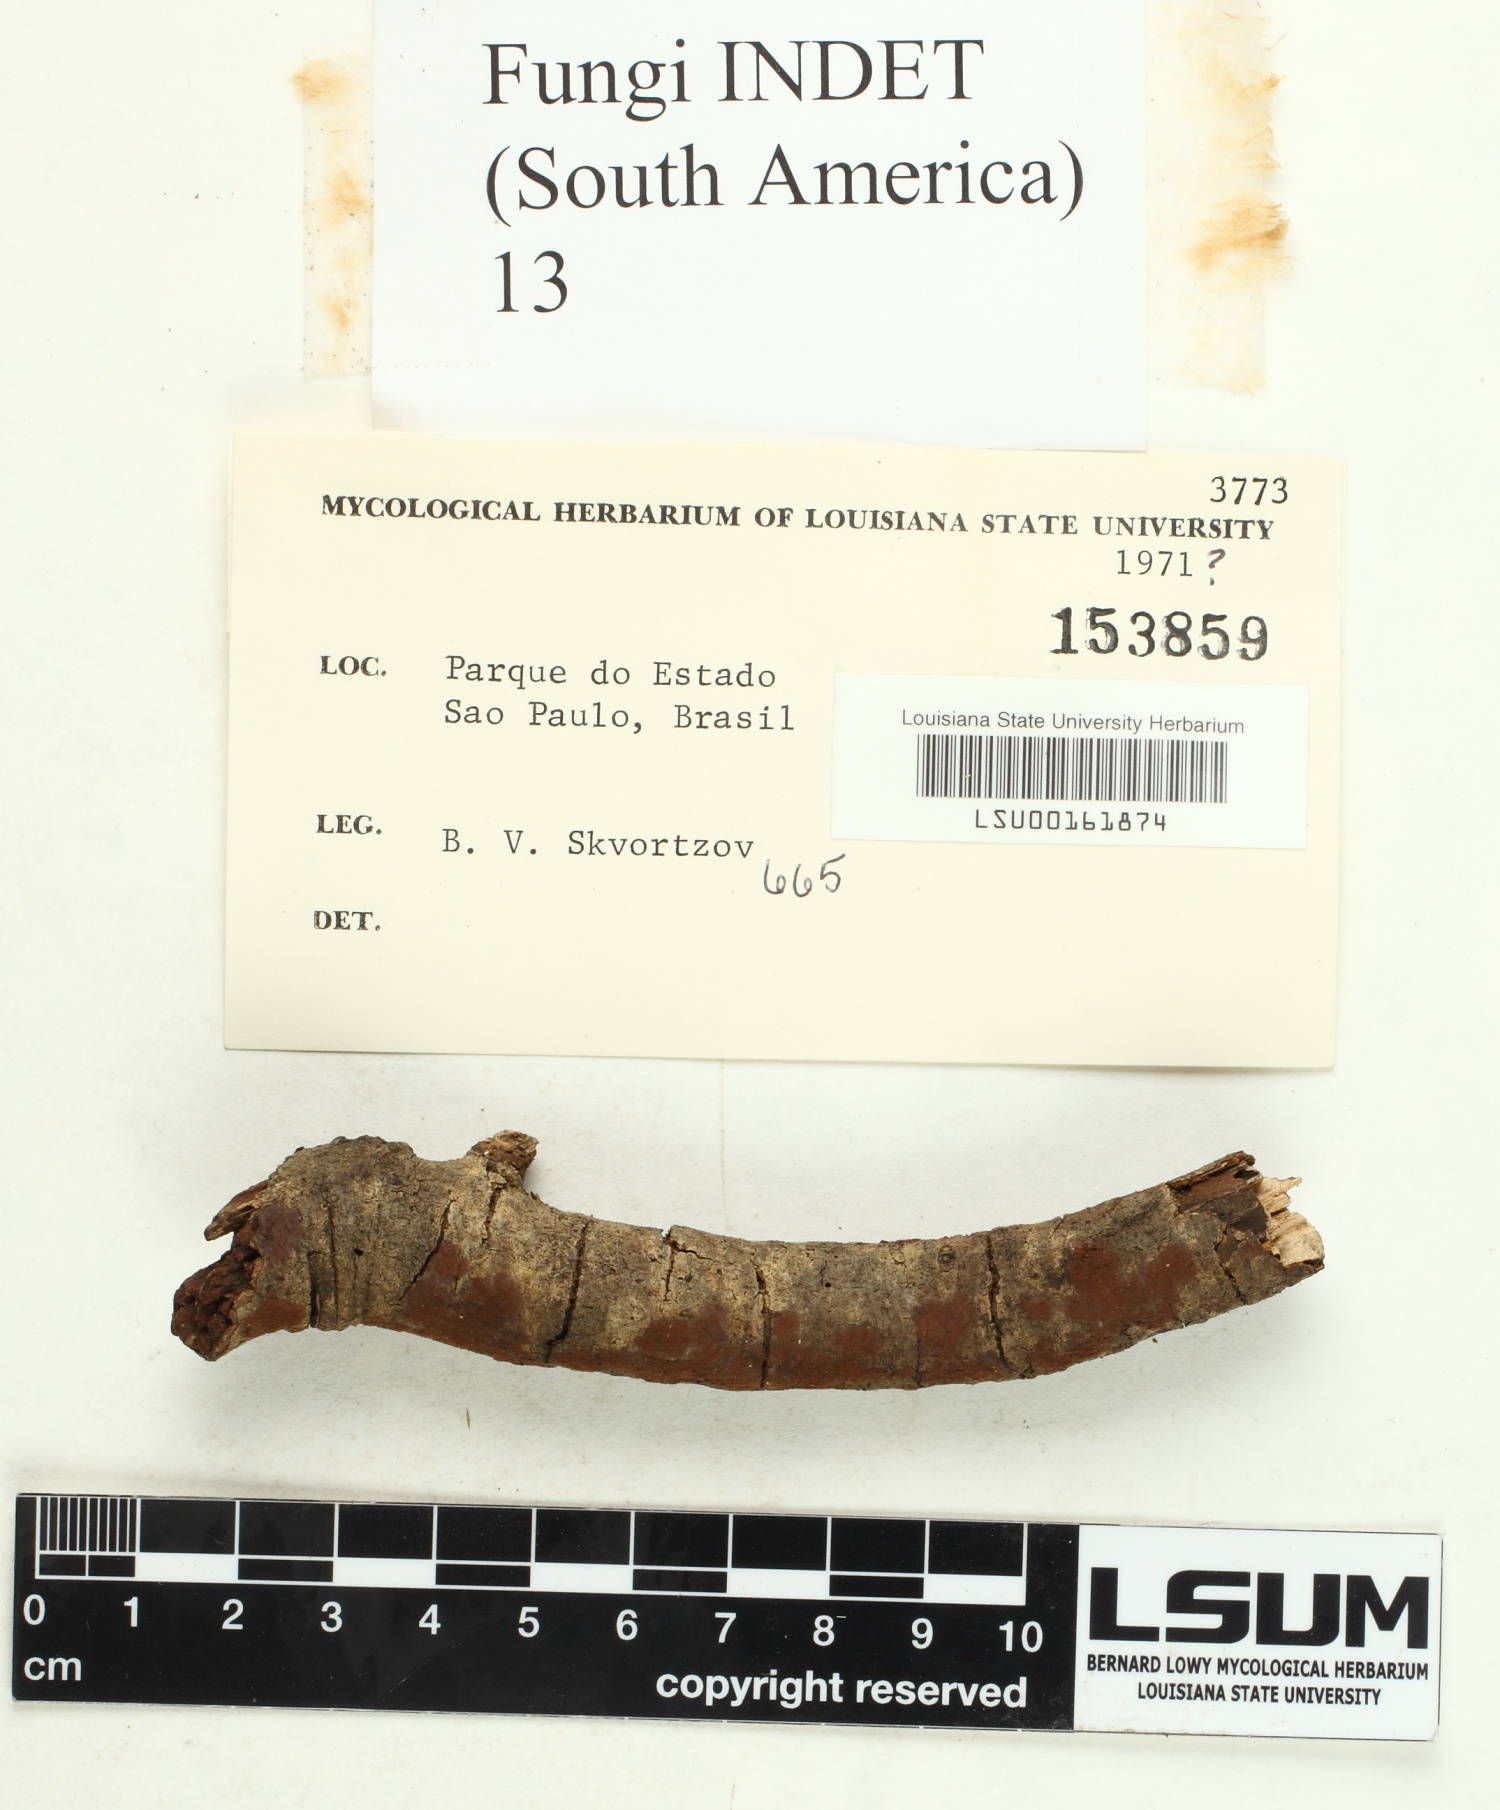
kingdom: Fungi
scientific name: Fungi
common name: Fungi
